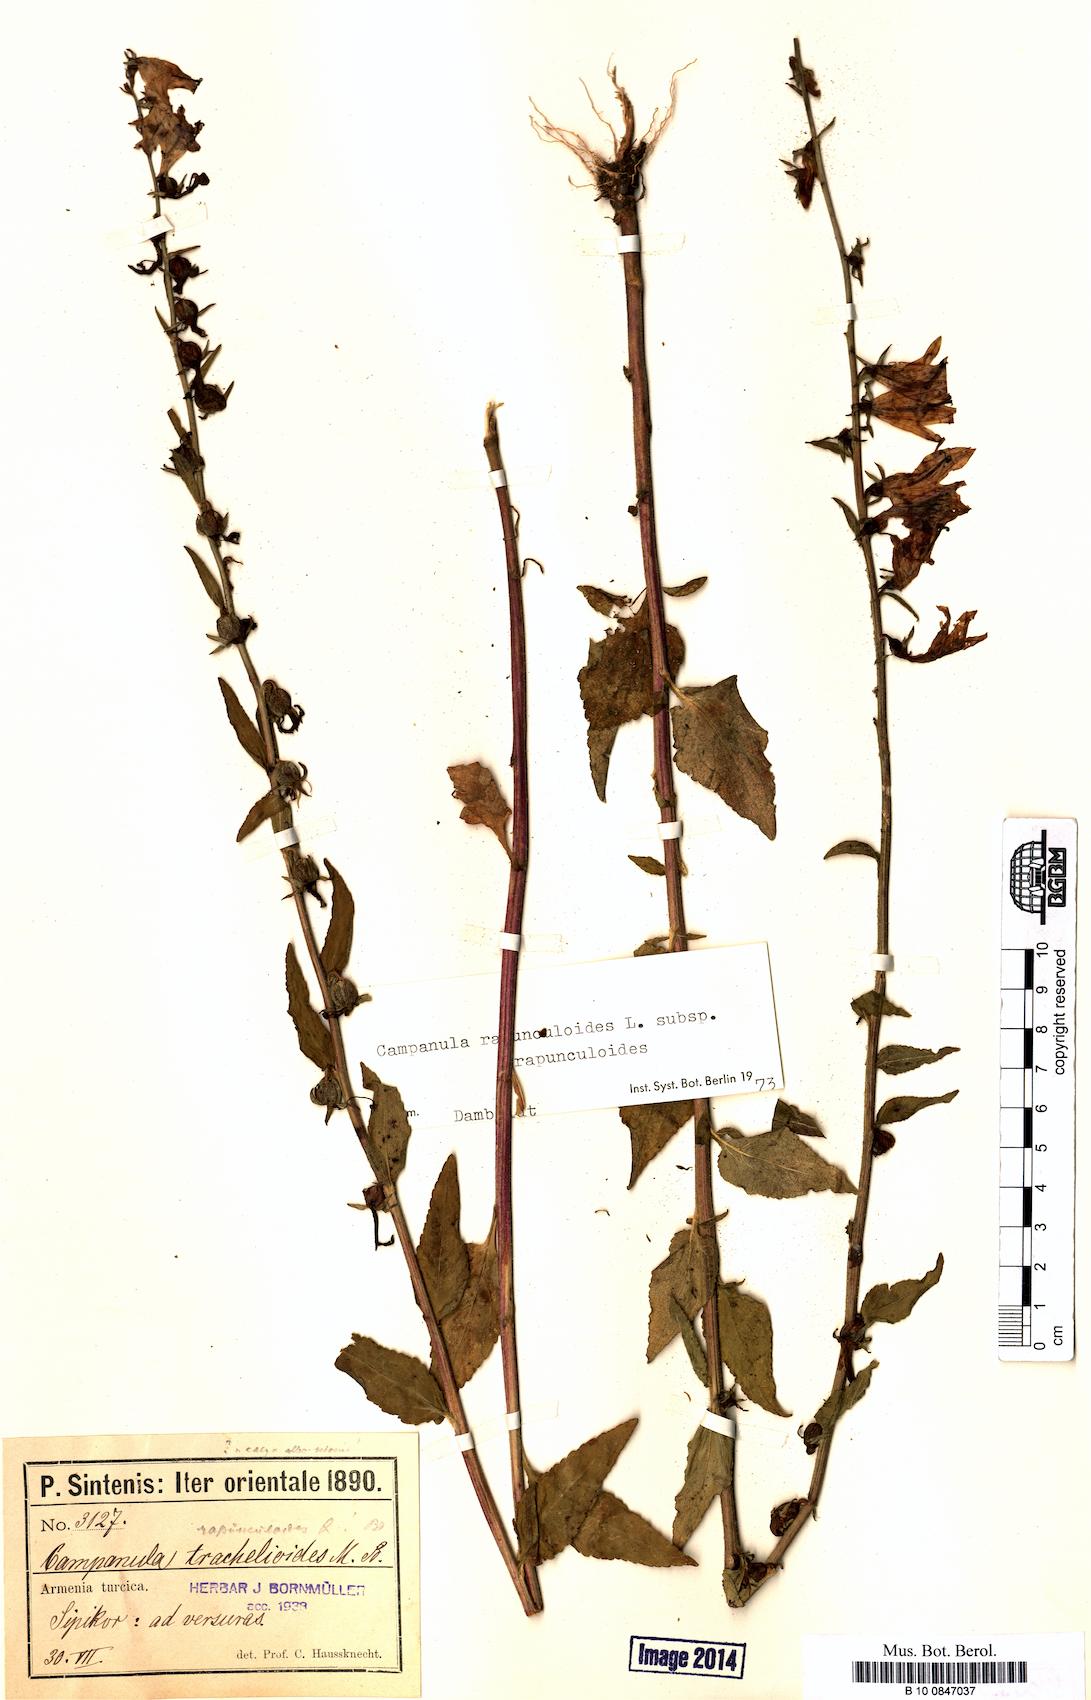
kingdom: Plantae
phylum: Tracheophyta
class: Magnoliopsida
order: Asterales
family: Campanulaceae
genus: Campanula
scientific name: Campanula rapunculoides
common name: Creeping bellflower
